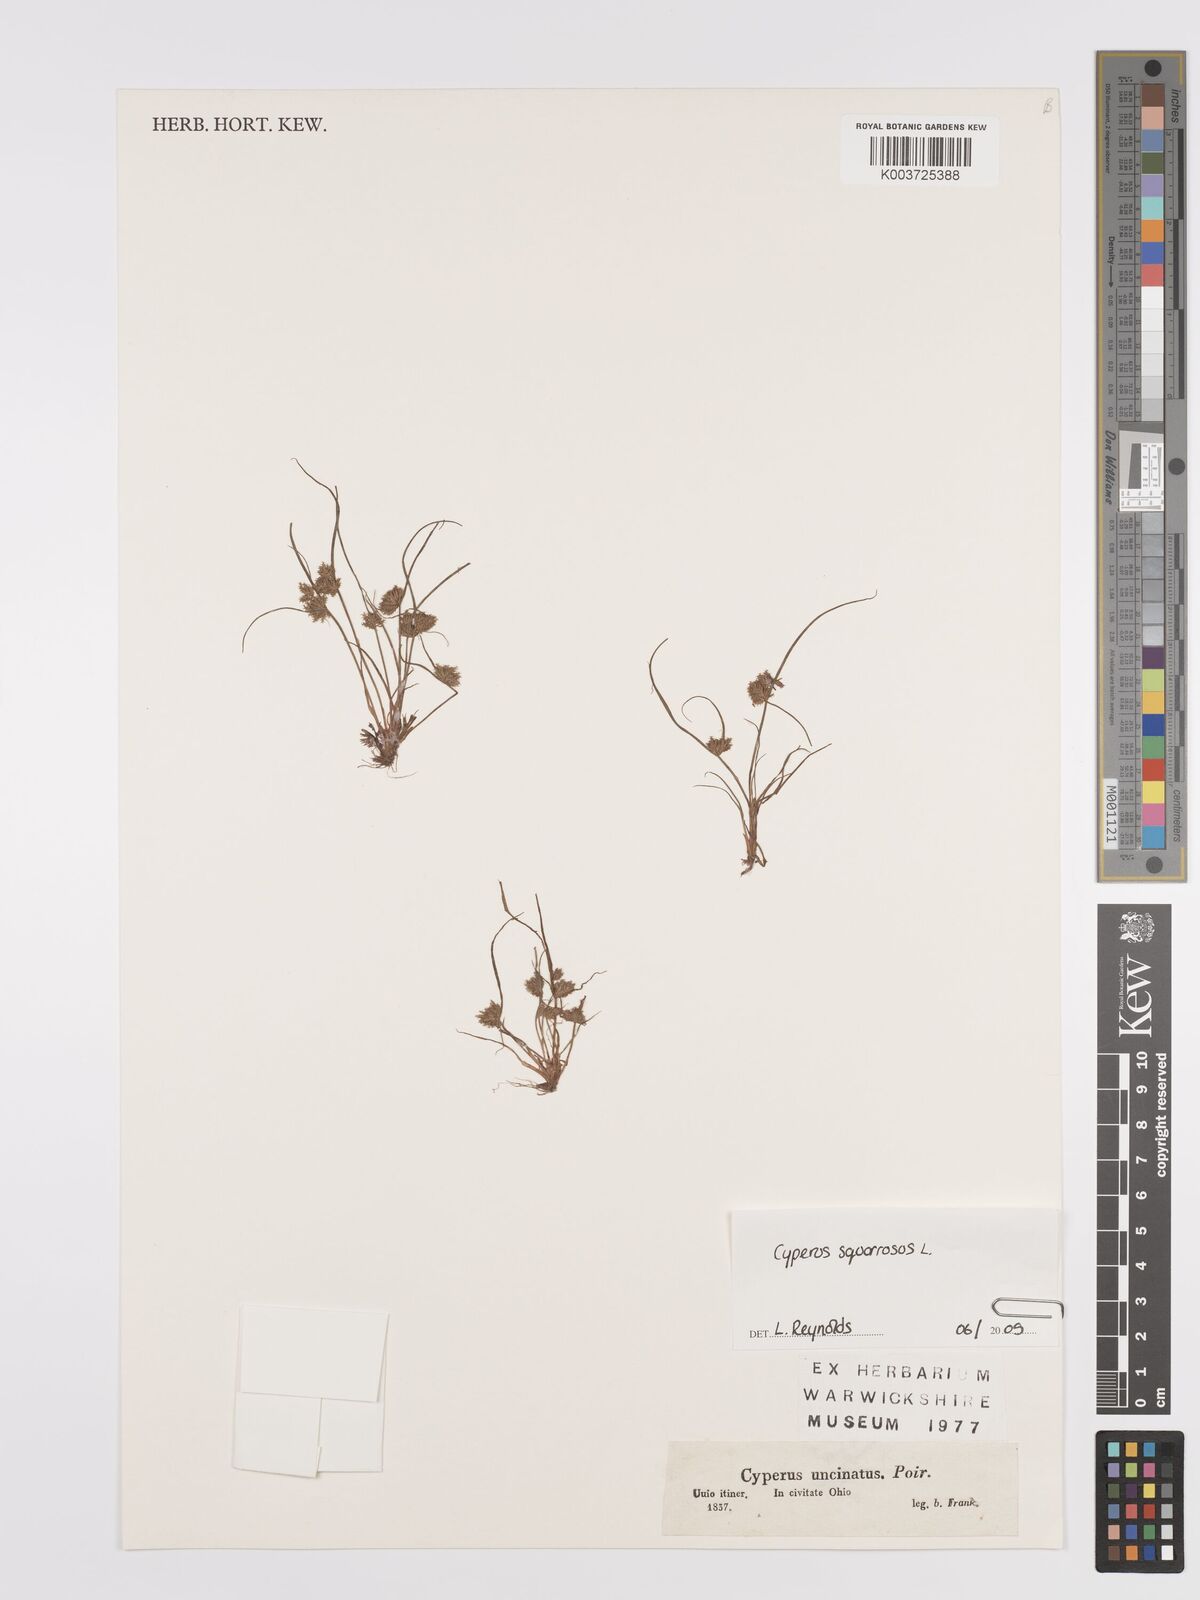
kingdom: Plantae
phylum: Tracheophyta
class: Liliopsida
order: Poales
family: Cyperaceae
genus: Cyperus
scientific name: Cyperus squarrosus
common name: Awned cyperus
